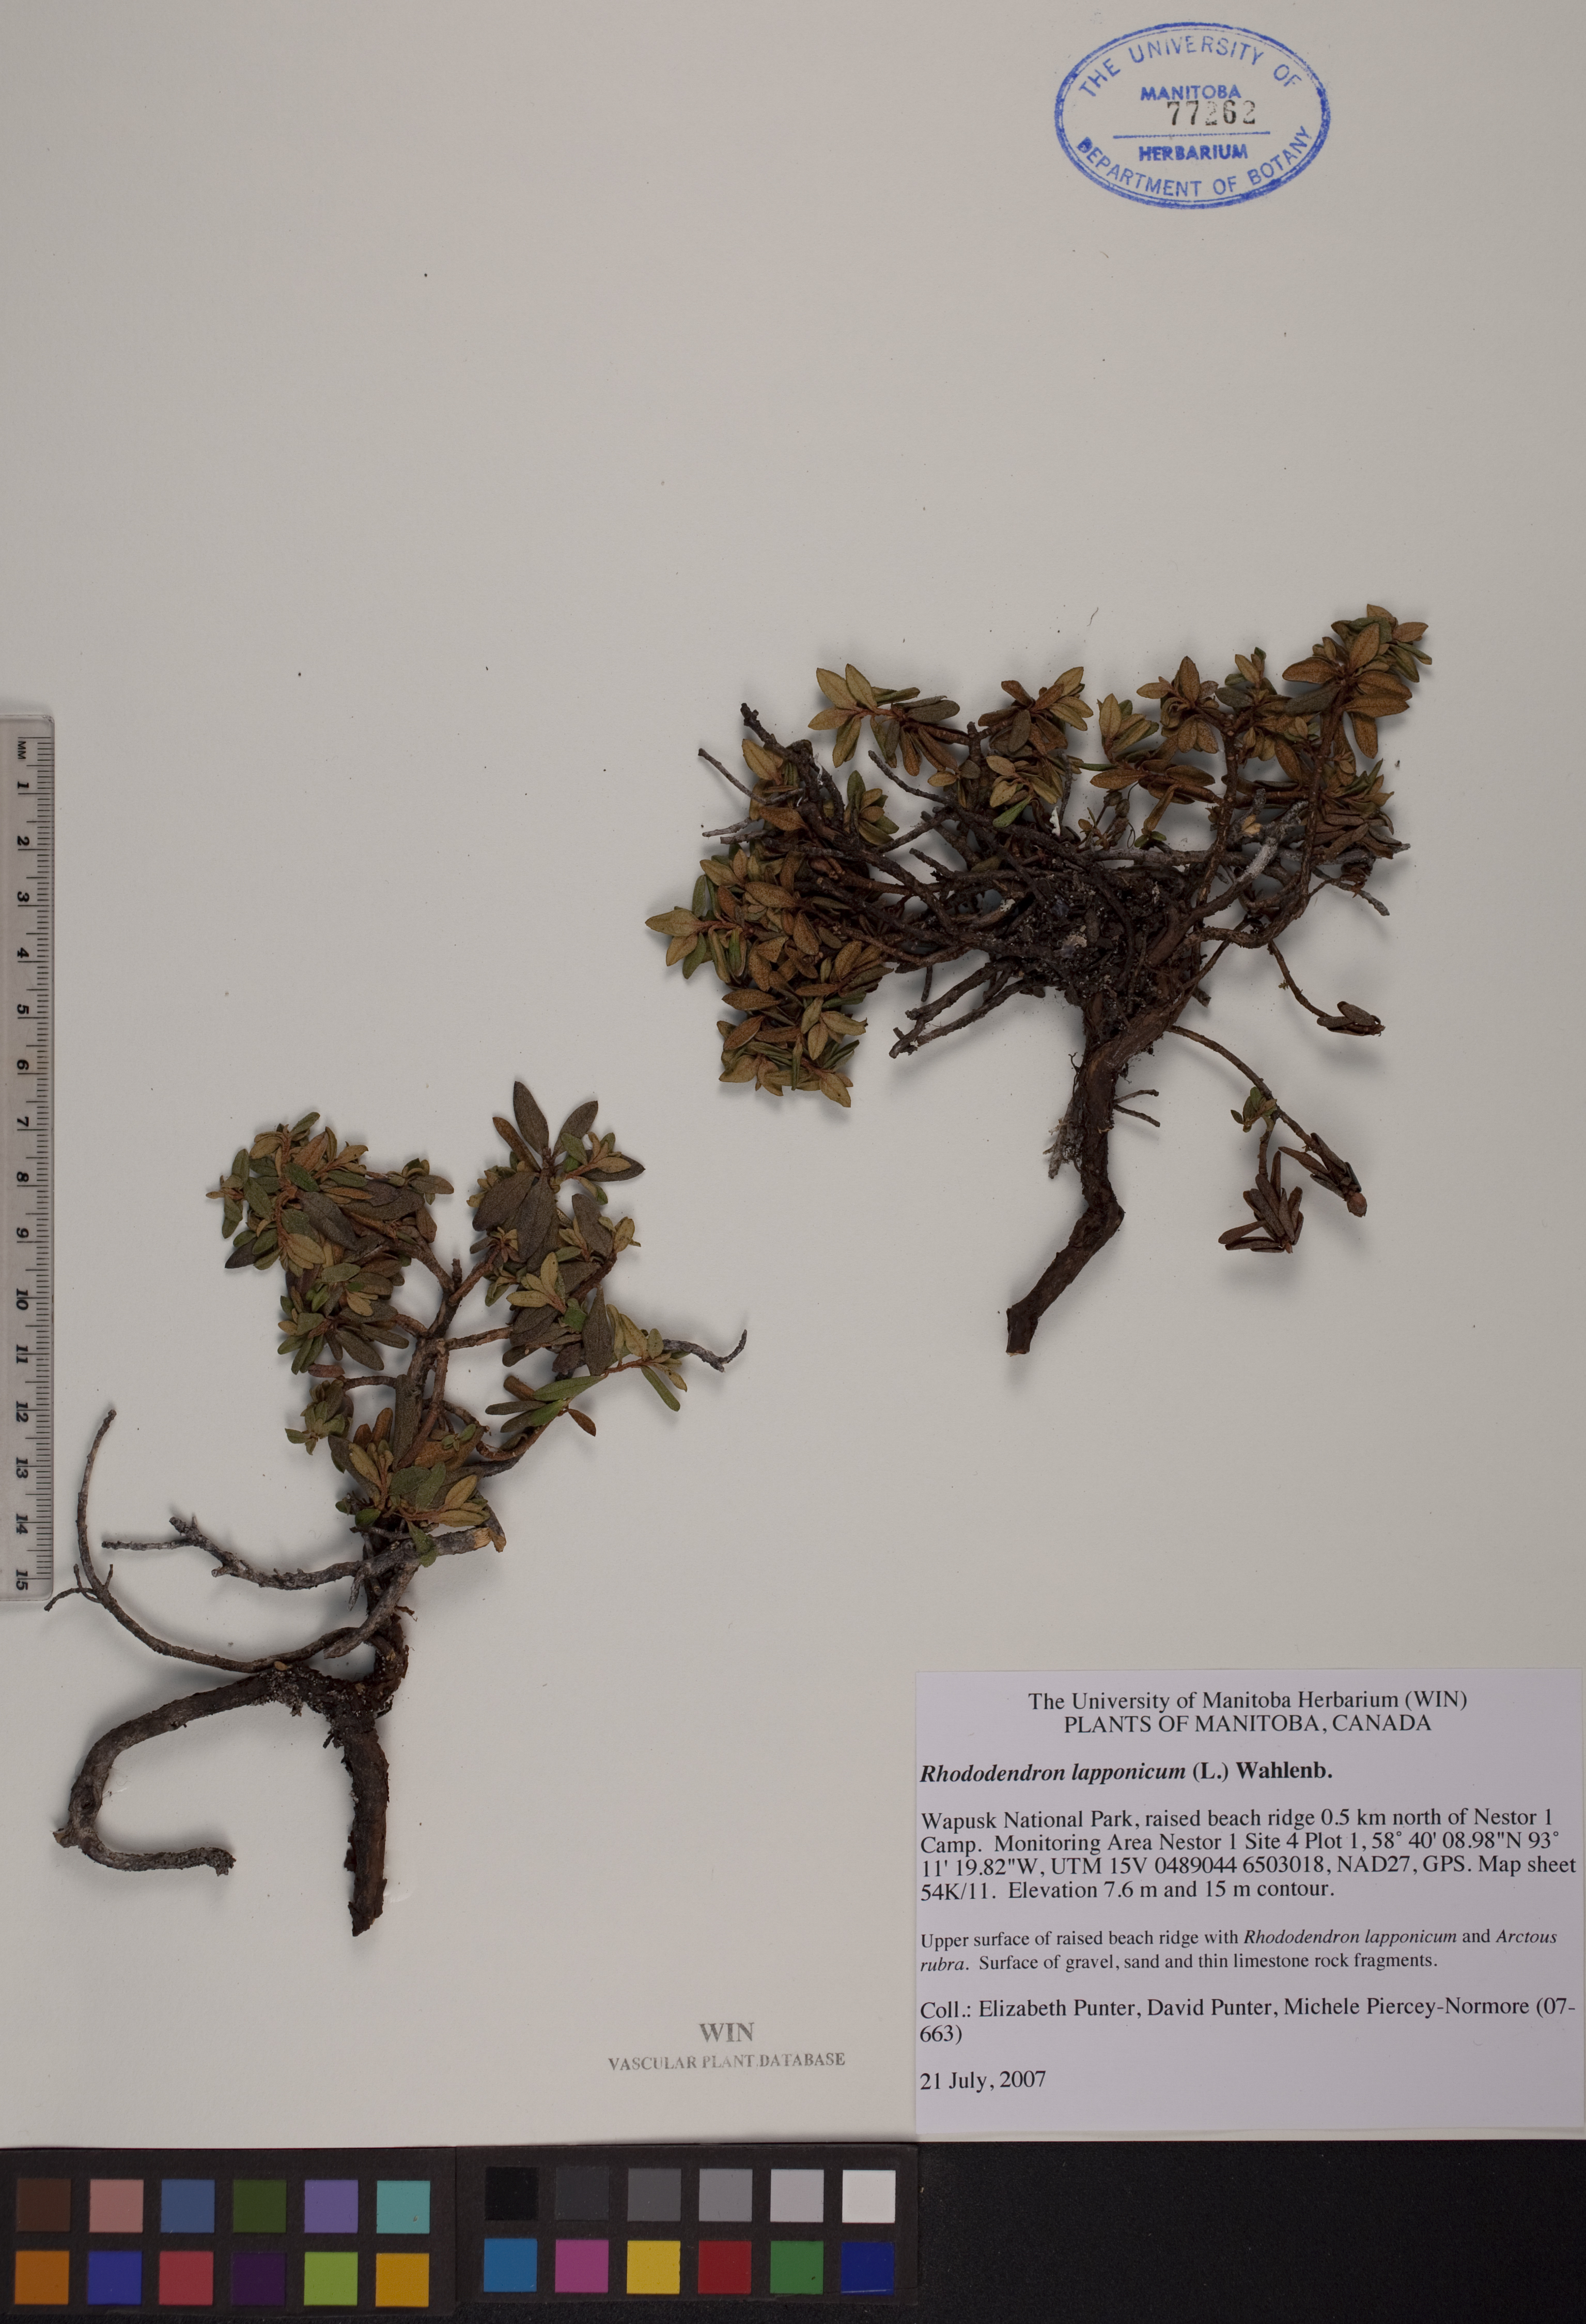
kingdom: Plantae
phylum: Tracheophyta
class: Magnoliopsida
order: Ericales
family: Ericaceae
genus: Rhododendron
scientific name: Rhododendron lapponicum
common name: Lapland rhododendron
